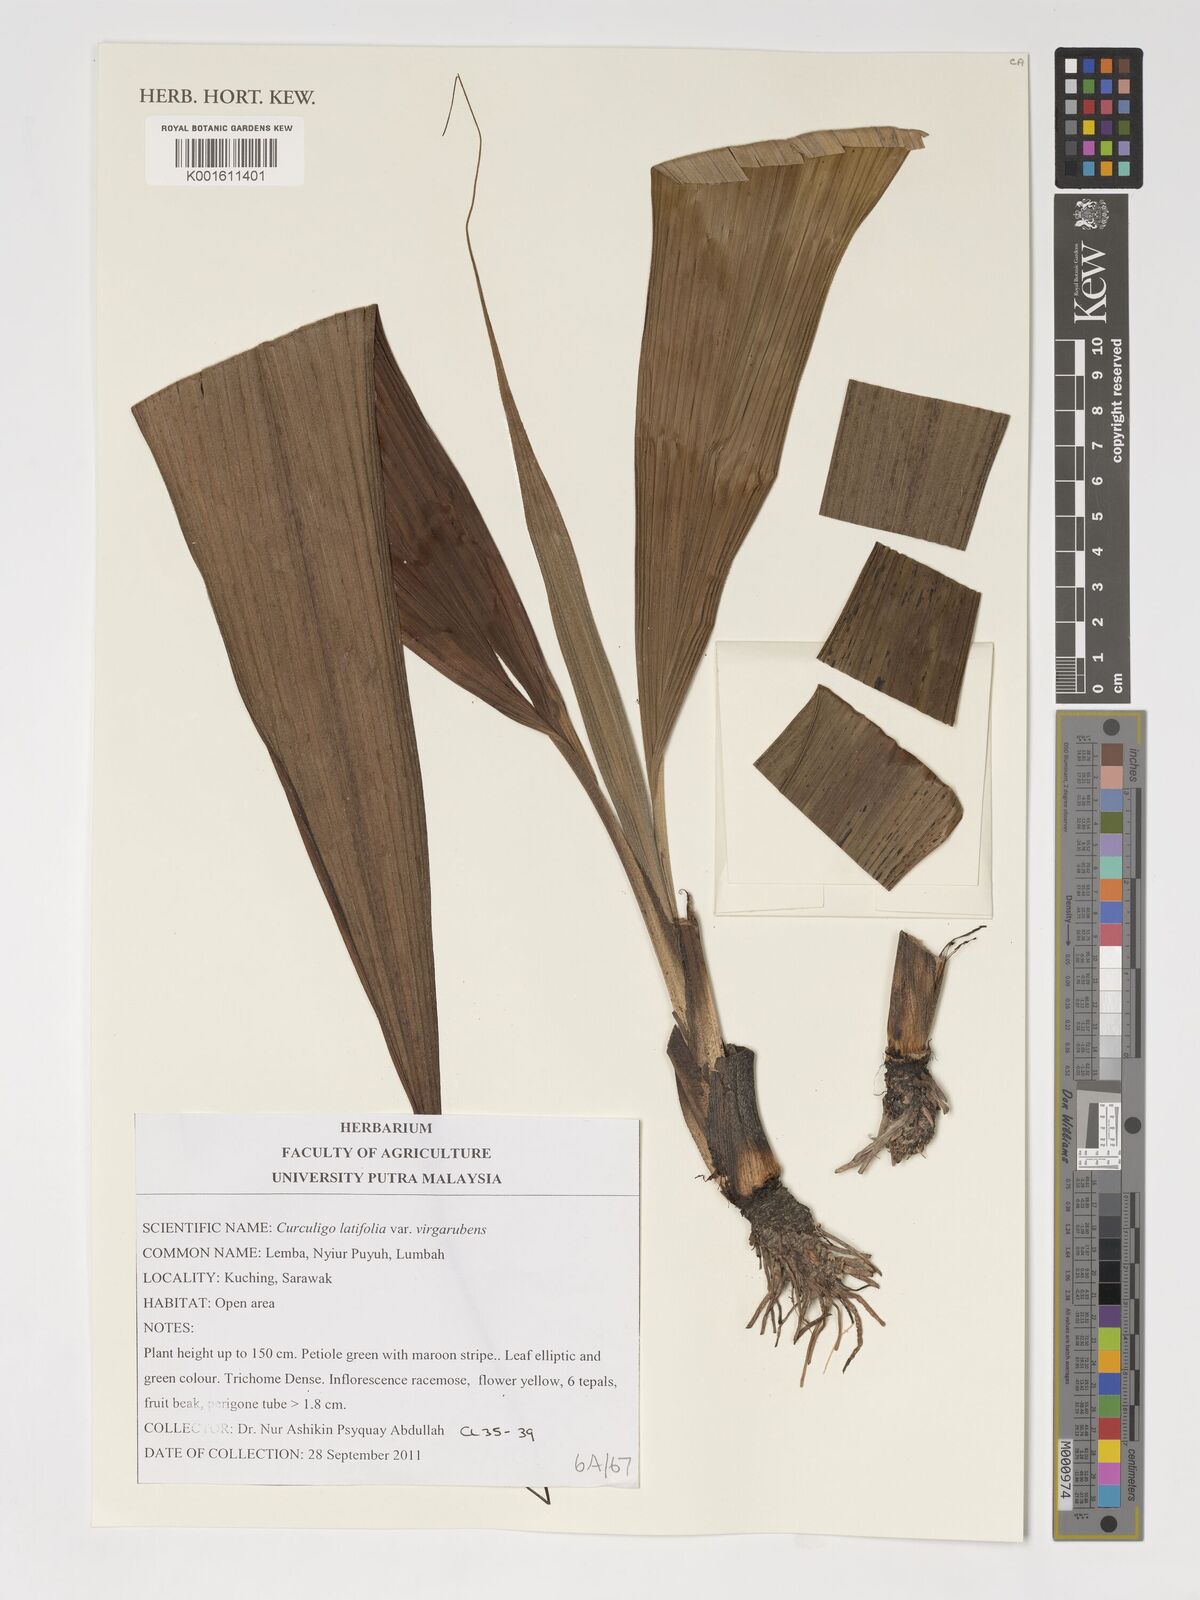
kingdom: Plantae
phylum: Tracheophyta
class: Liliopsida
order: Asparagales
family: Hypoxidaceae
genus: Curculigo
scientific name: Curculigo latifolia
